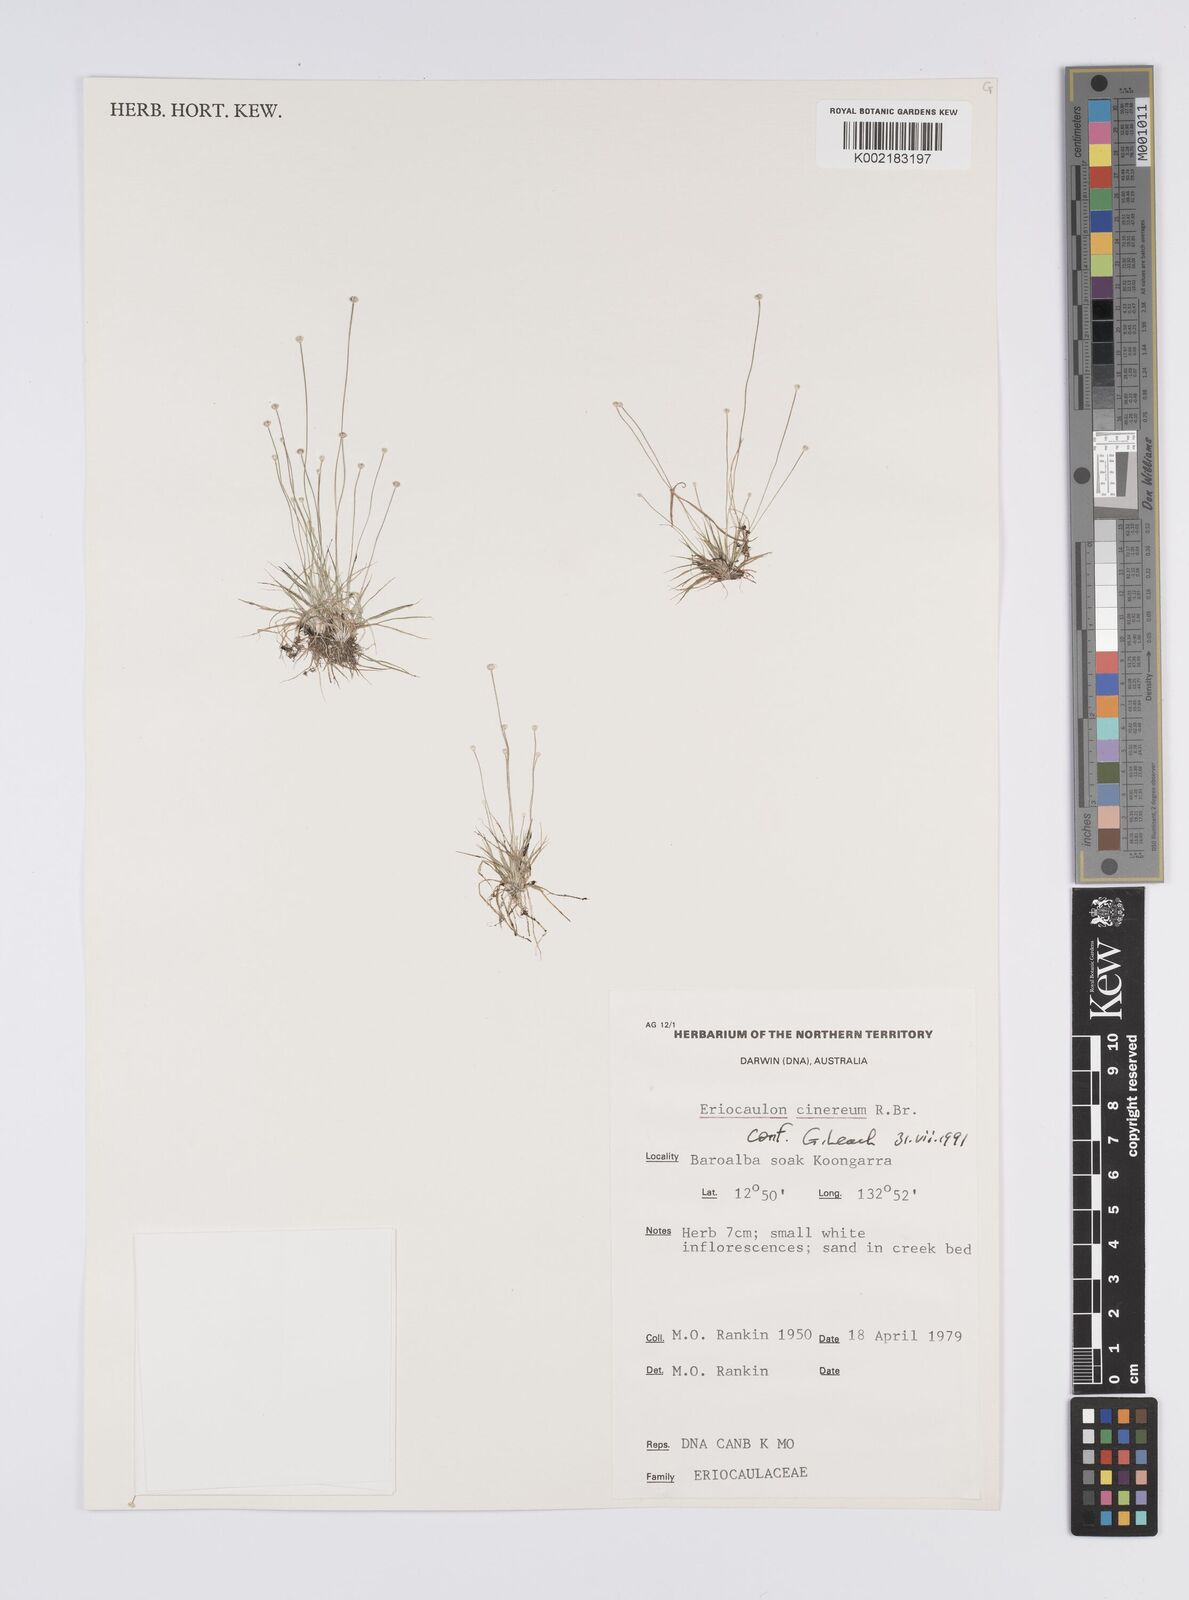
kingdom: Plantae
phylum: Tracheophyta
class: Liliopsida
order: Poales
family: Eriocaulaceae
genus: Eriocaulon
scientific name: Eriocaulon cinereum
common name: Ashy pipewort
